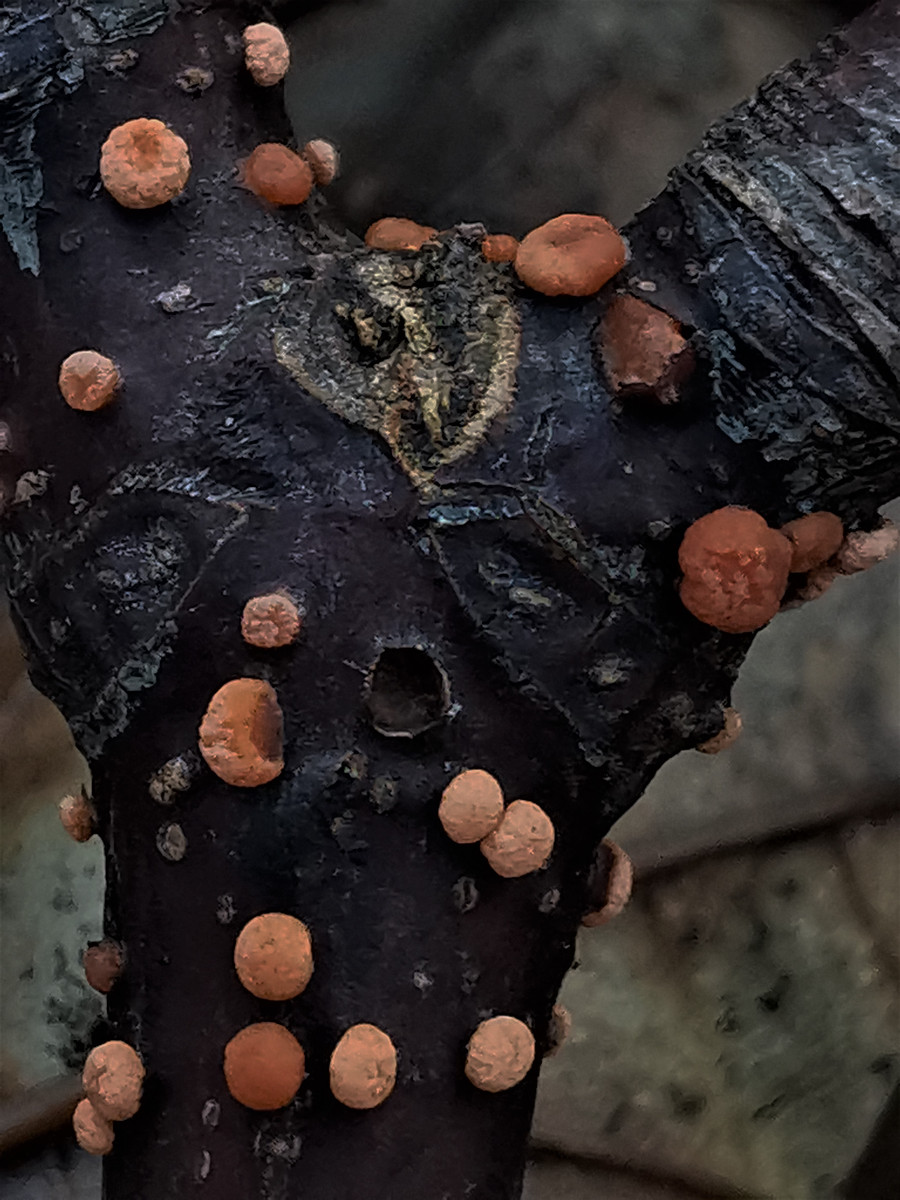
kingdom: Fungi
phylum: Ascomycota
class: Sordariomycetes
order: Hypocreales
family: Nectriaceae
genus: Nectria
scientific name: Nectria cinnabarina
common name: almindelig cinnobersvamp
